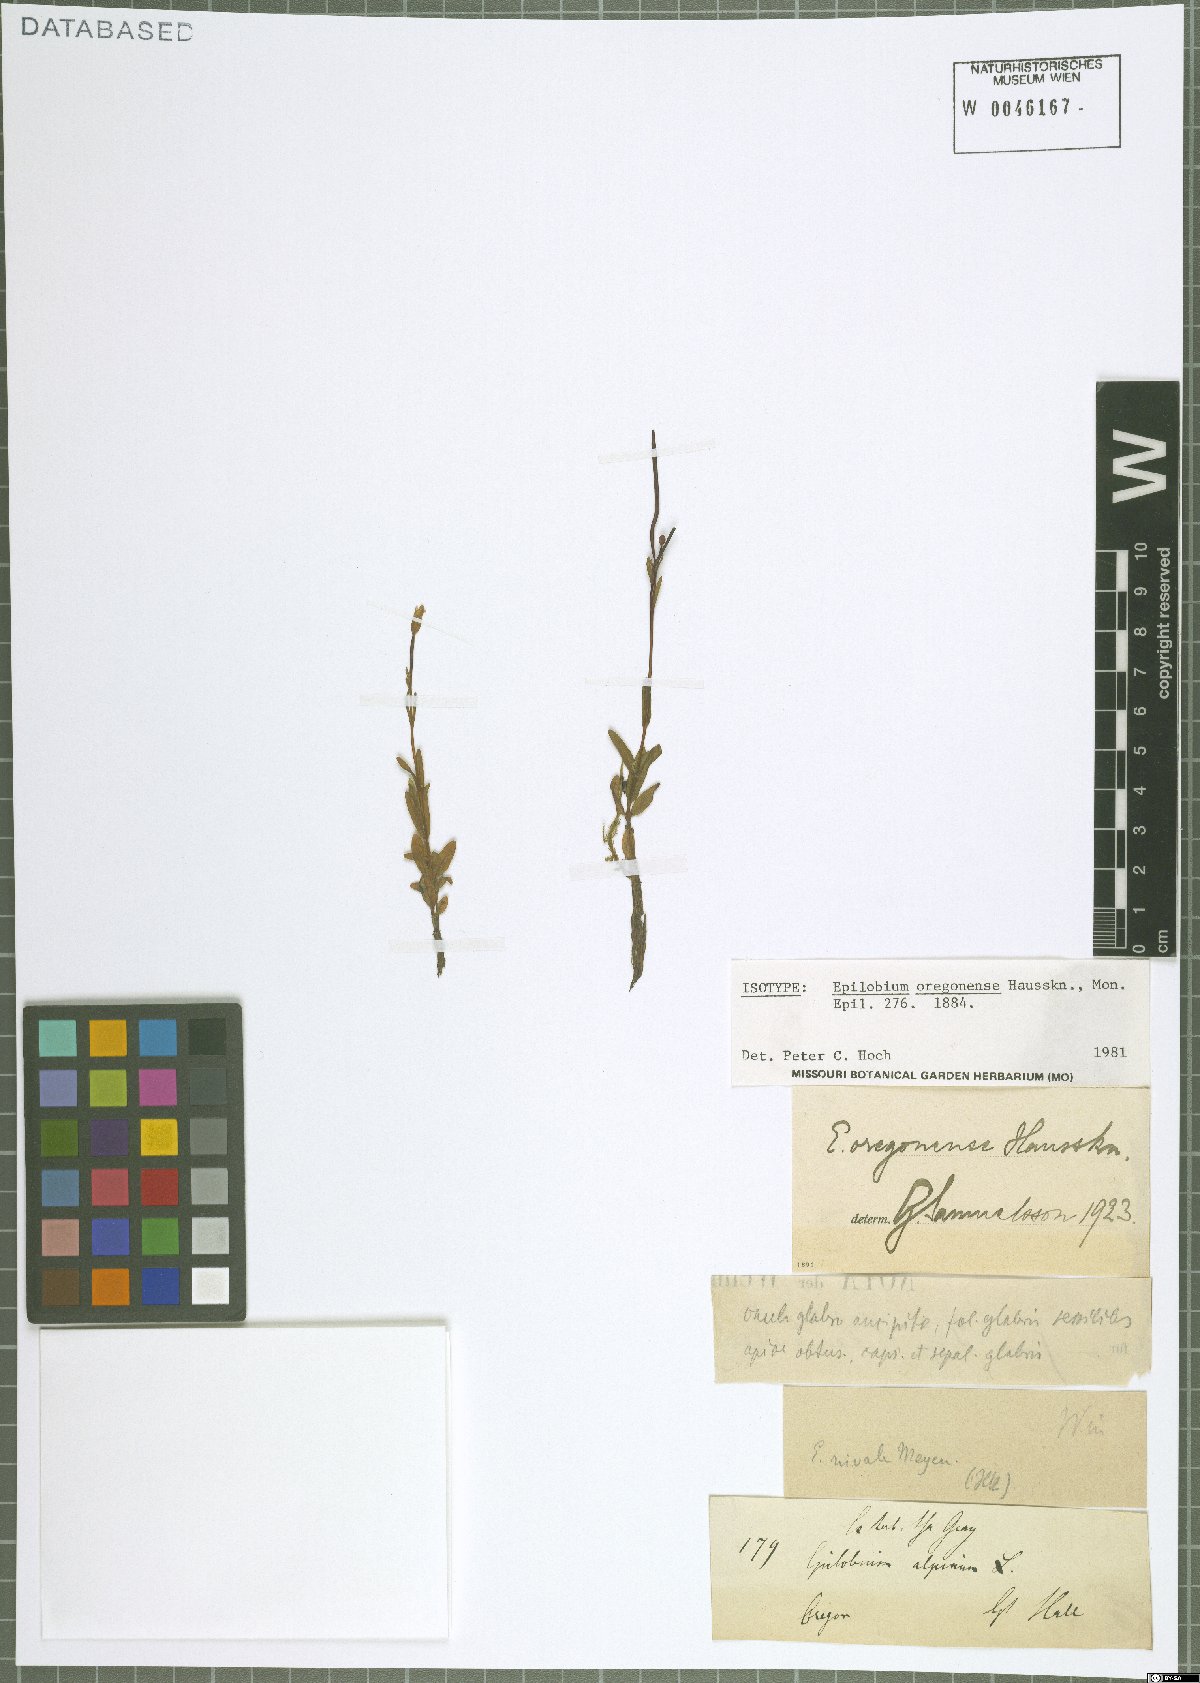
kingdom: Plantae
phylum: Tracheophyta
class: Magnoliopsida
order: Myrtales
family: Onagraceae
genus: Epilobium
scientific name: Epilobium oregonense
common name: Oregon willowherb
